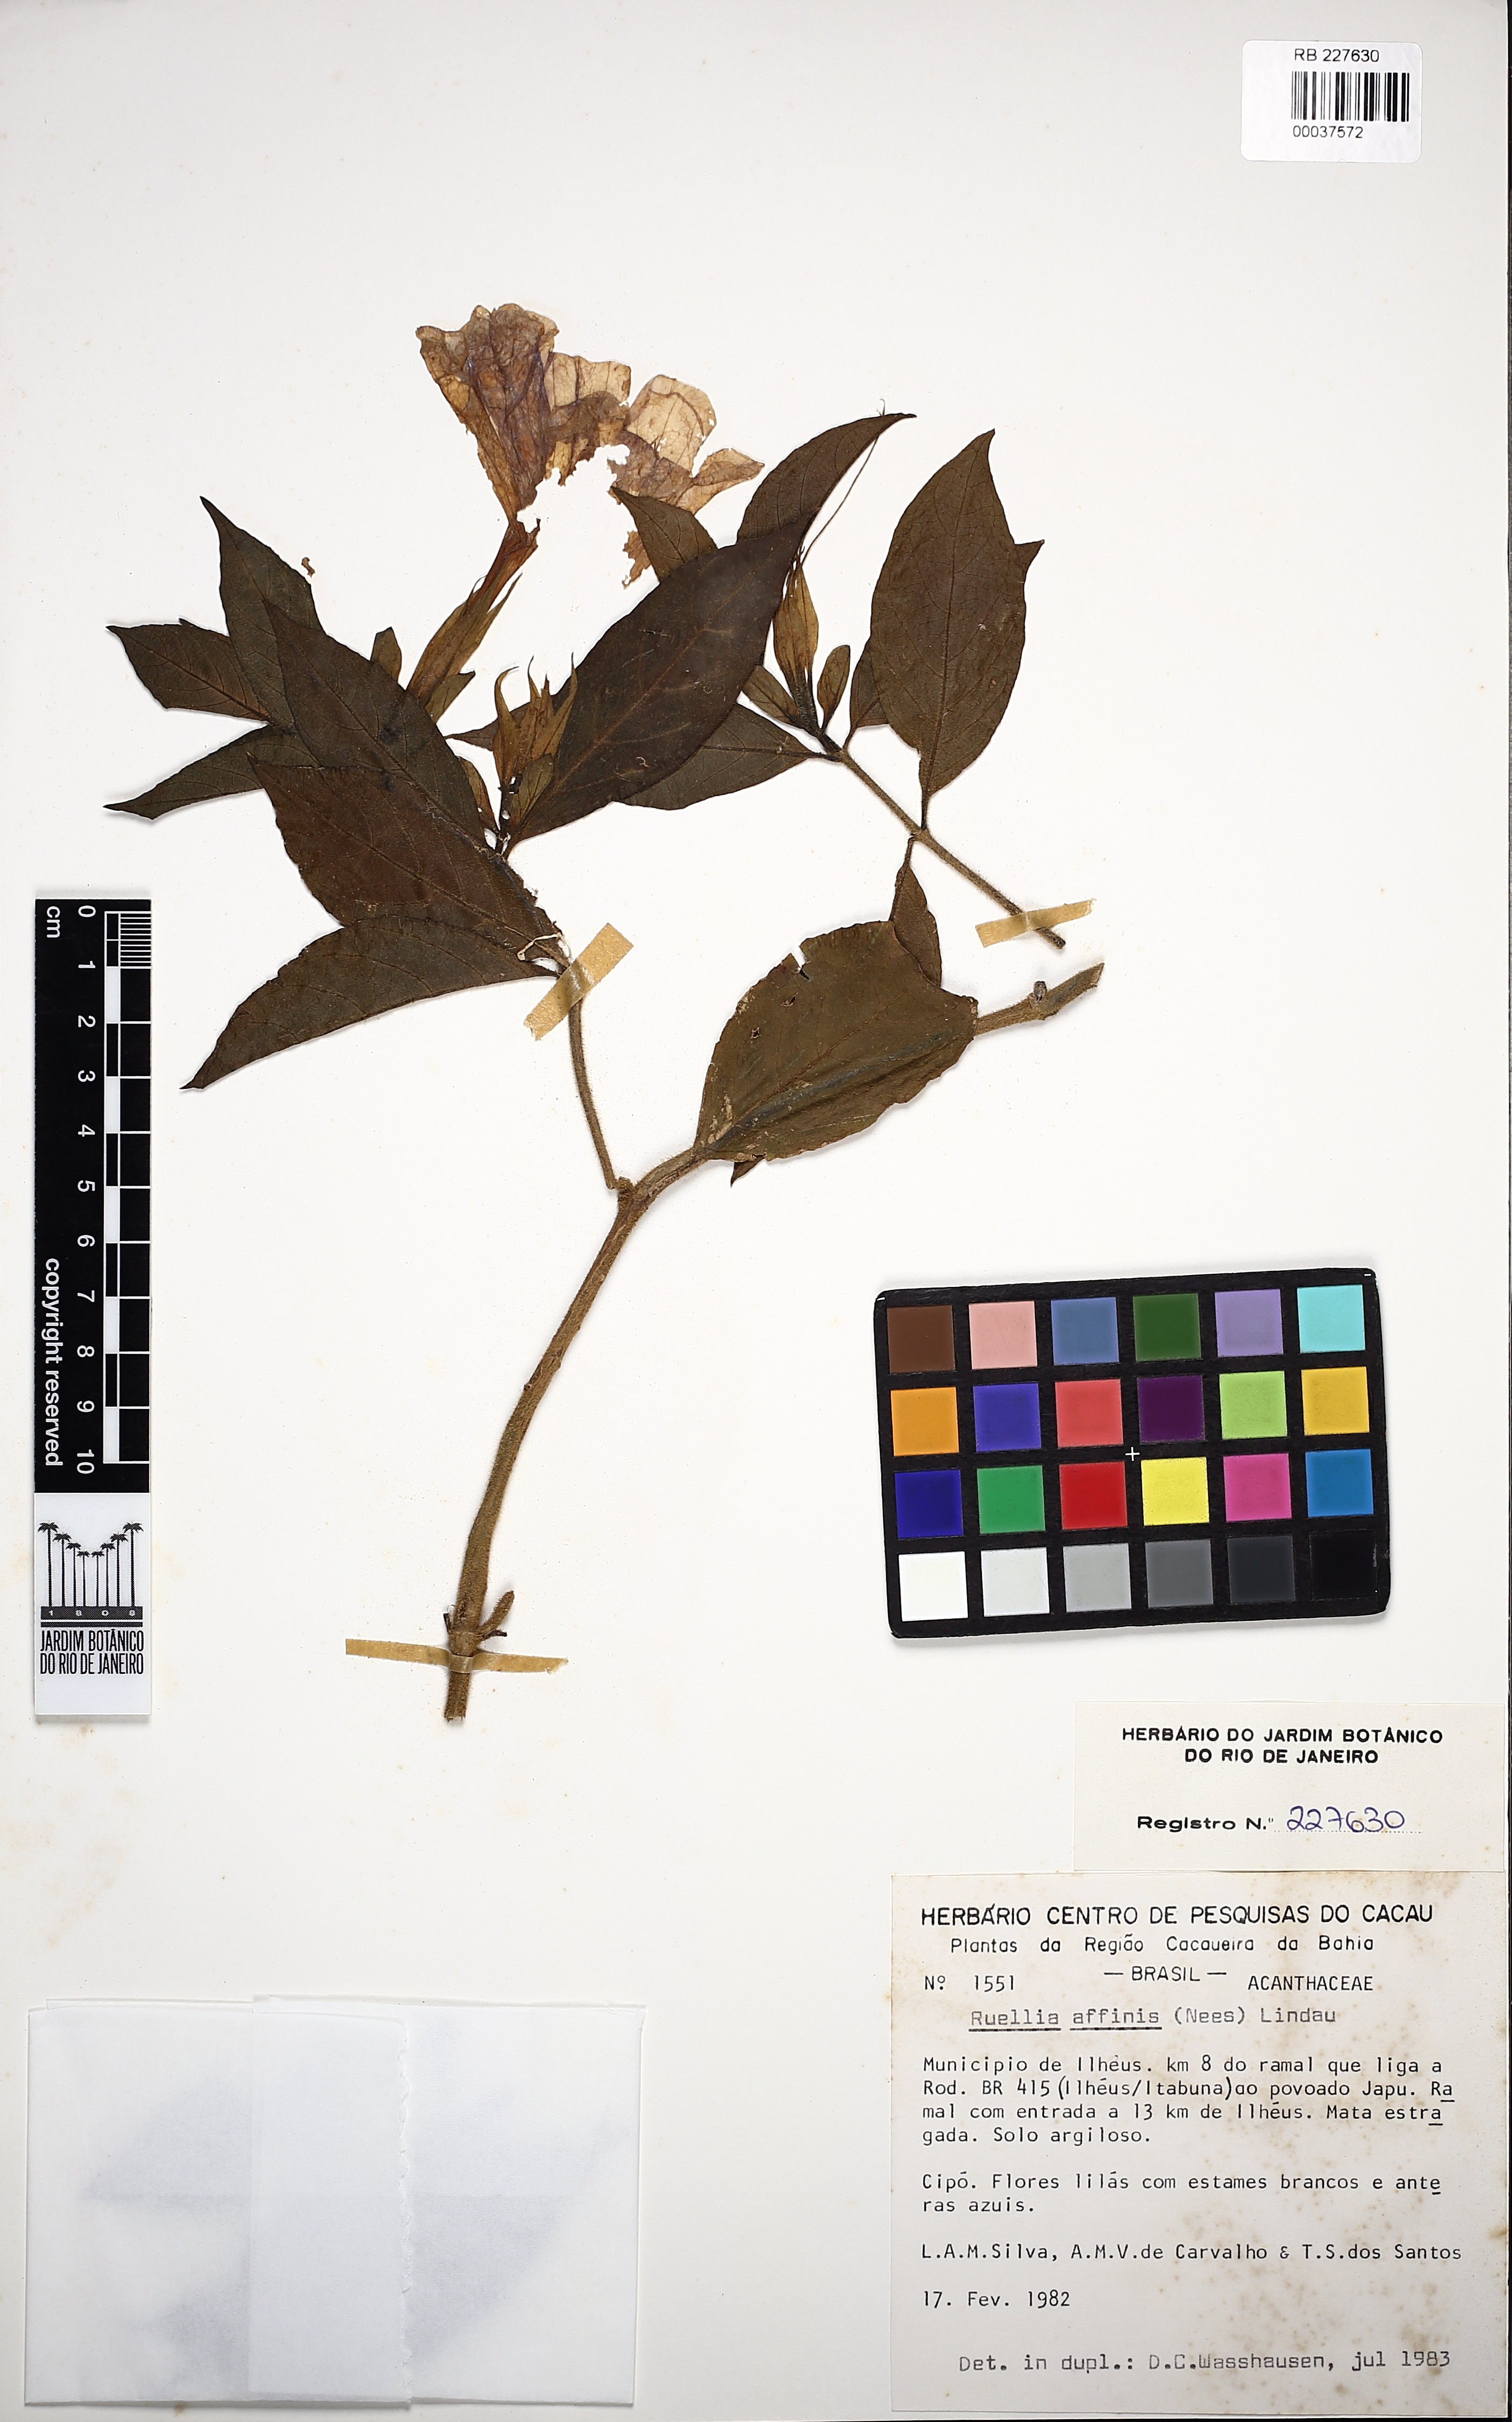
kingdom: Plantae
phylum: Tracheophyta
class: Magnoliopsida
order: Lamiales
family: Acanthaceae
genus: Ruellia
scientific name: Ruellia
